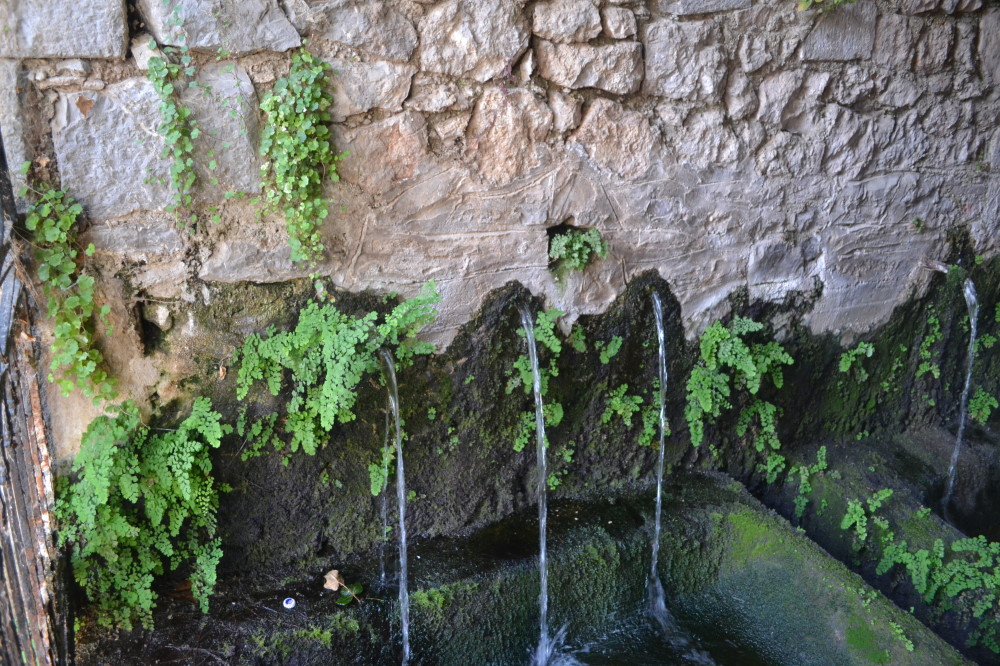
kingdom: Plantae
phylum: Tracheophyta
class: Polypodiopsida
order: Polypodiales
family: Pteridaceae
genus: Adiantum
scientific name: Adiantum capillus-veneris
